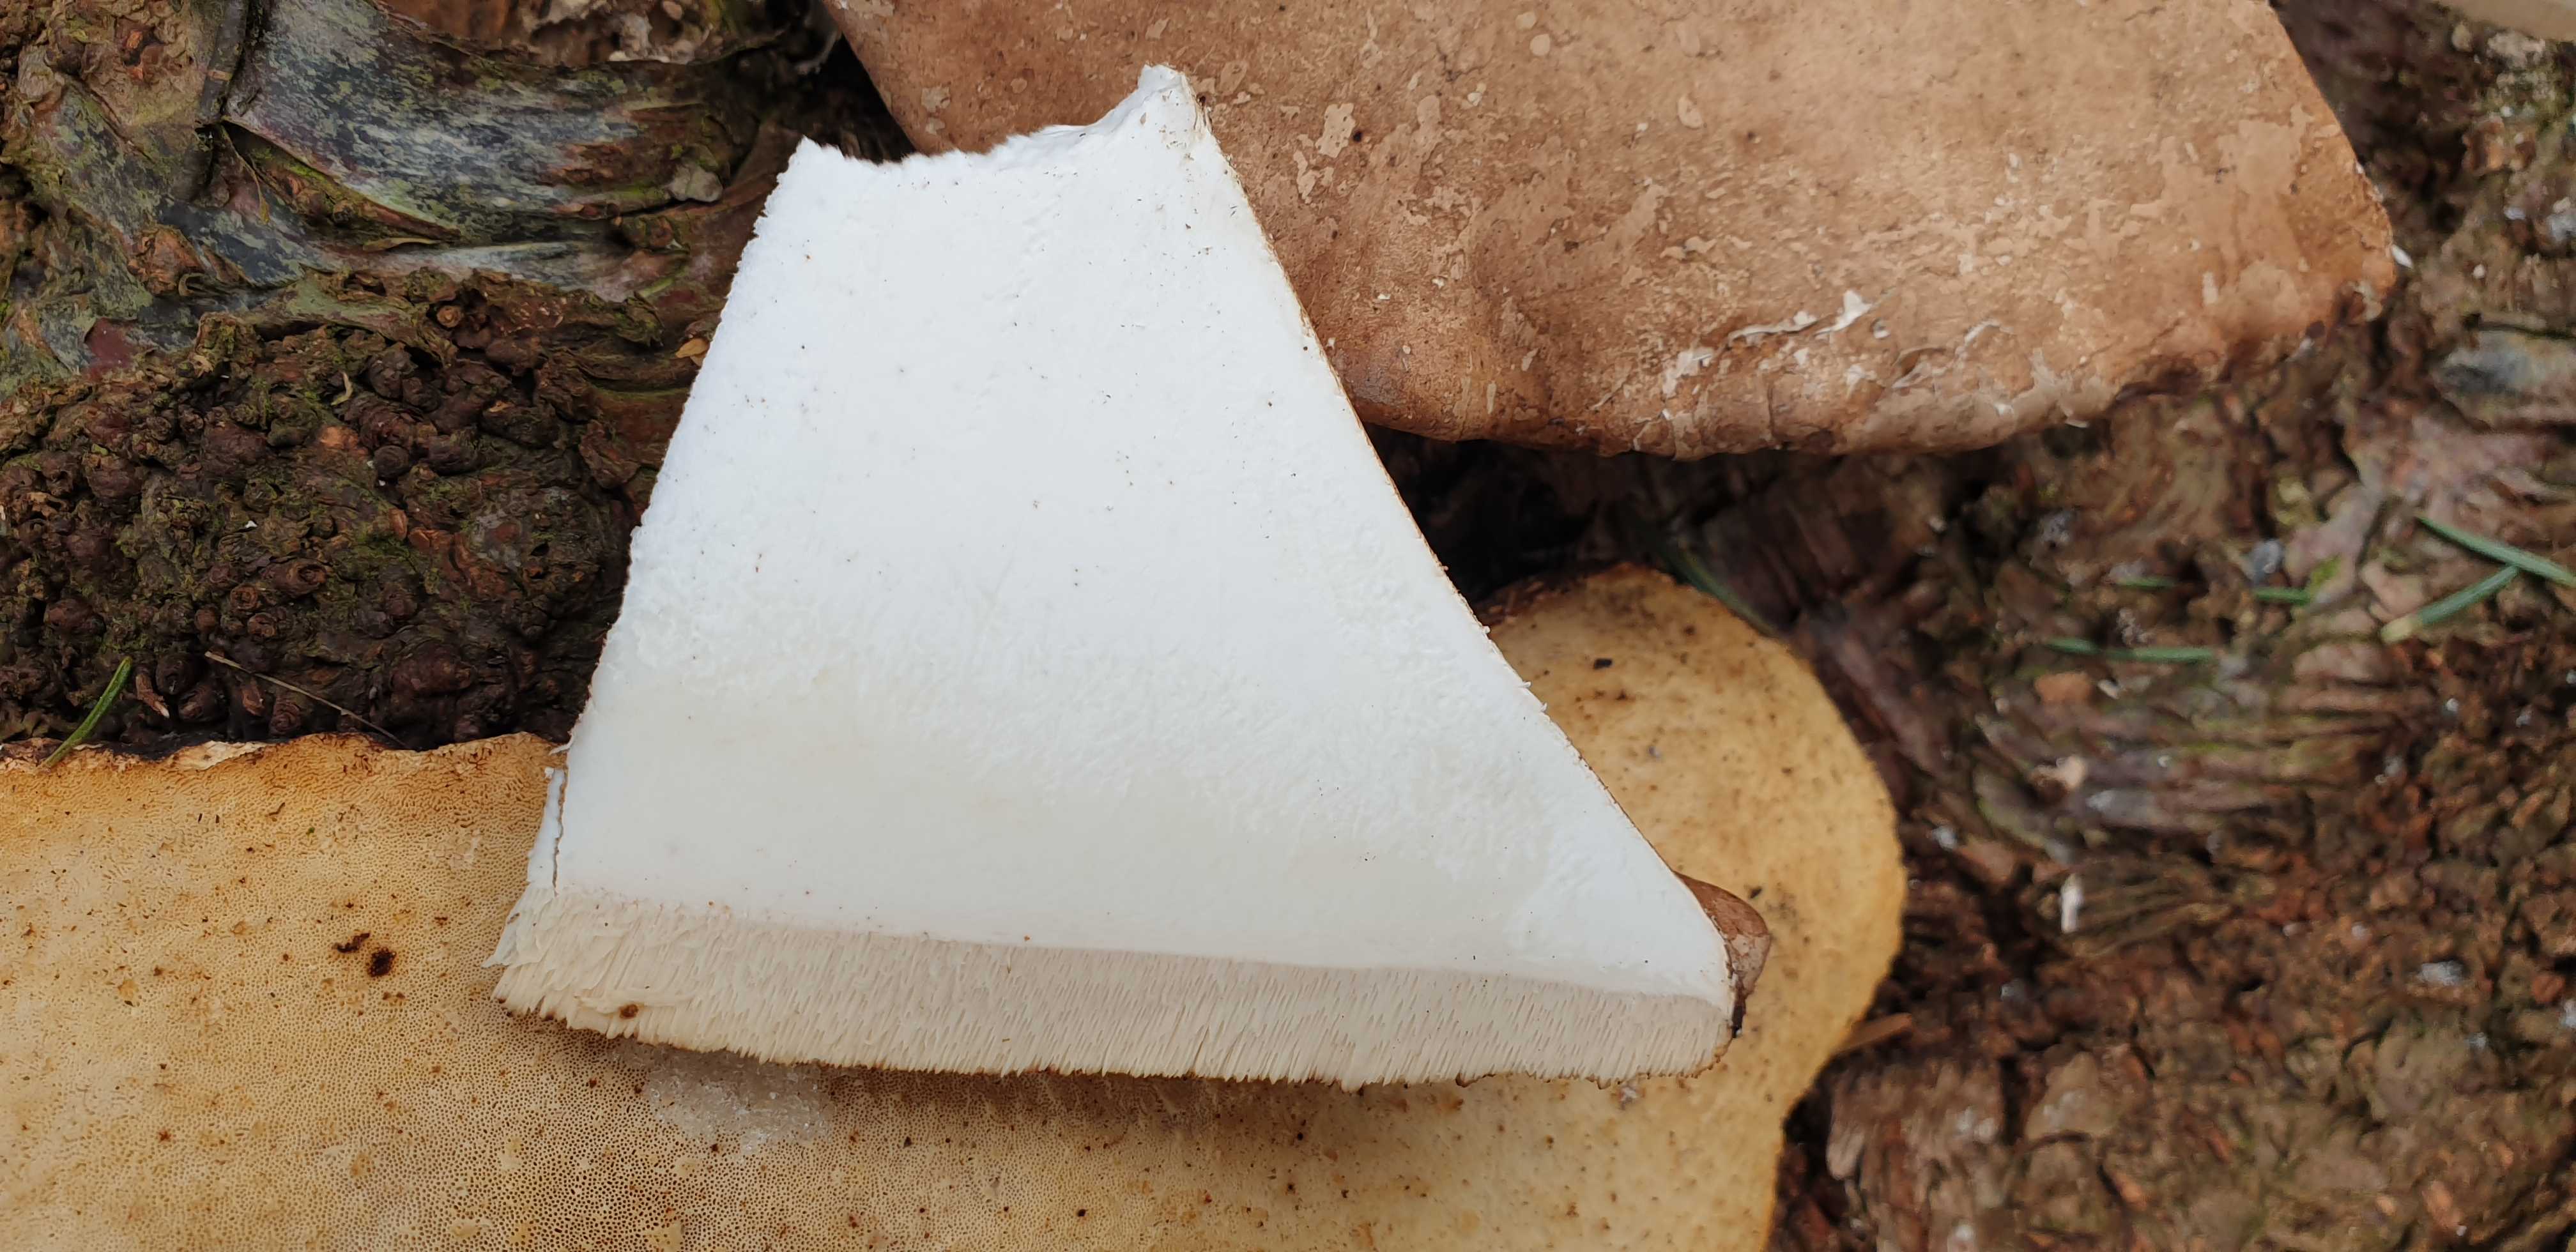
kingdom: Fungi
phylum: Basidiomycota
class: Agaricomycetes
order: Polyporales
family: Fomitopsidaceae
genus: Fomitopsis
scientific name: Fomitopsis betulina
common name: birkeporesvamp
